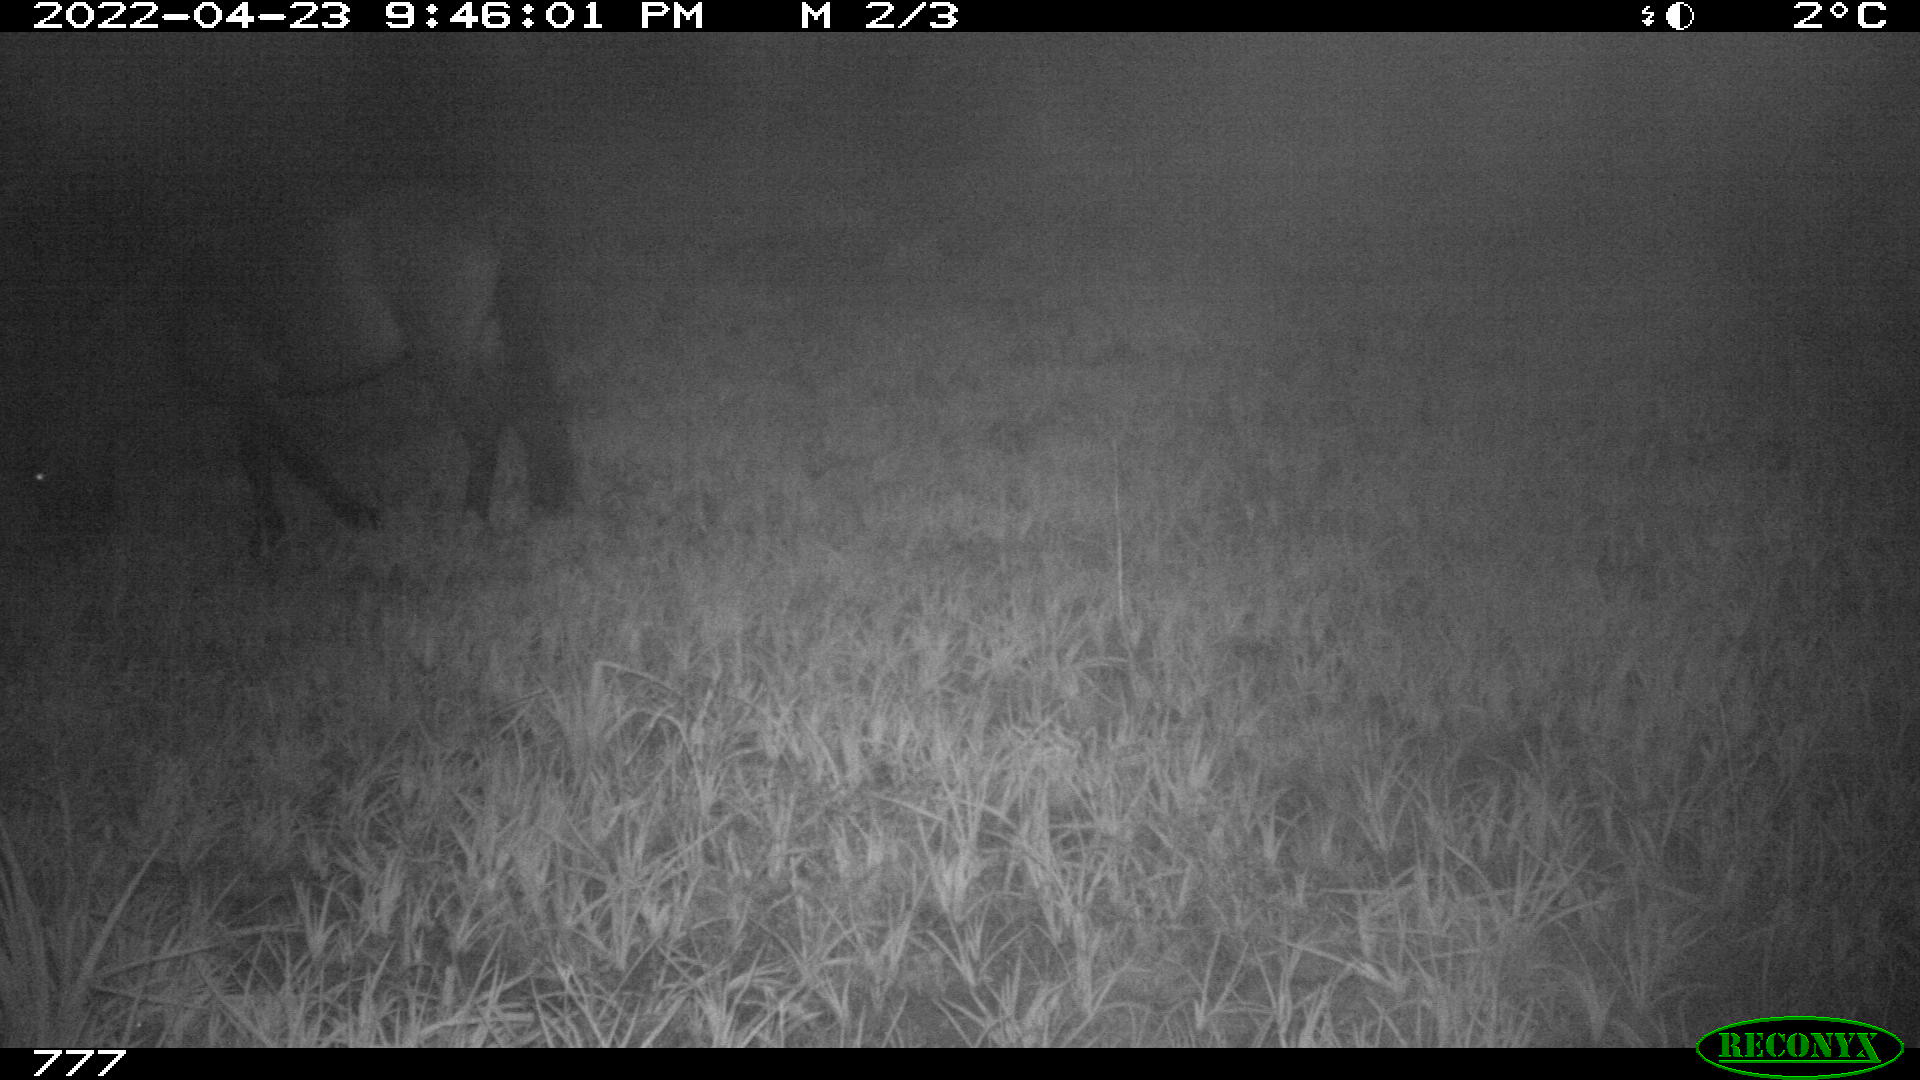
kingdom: Animalia
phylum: Chordata
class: Mammalia
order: Perissodactyla
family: Equidae
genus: Equus
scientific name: Equus caballus
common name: Horse
